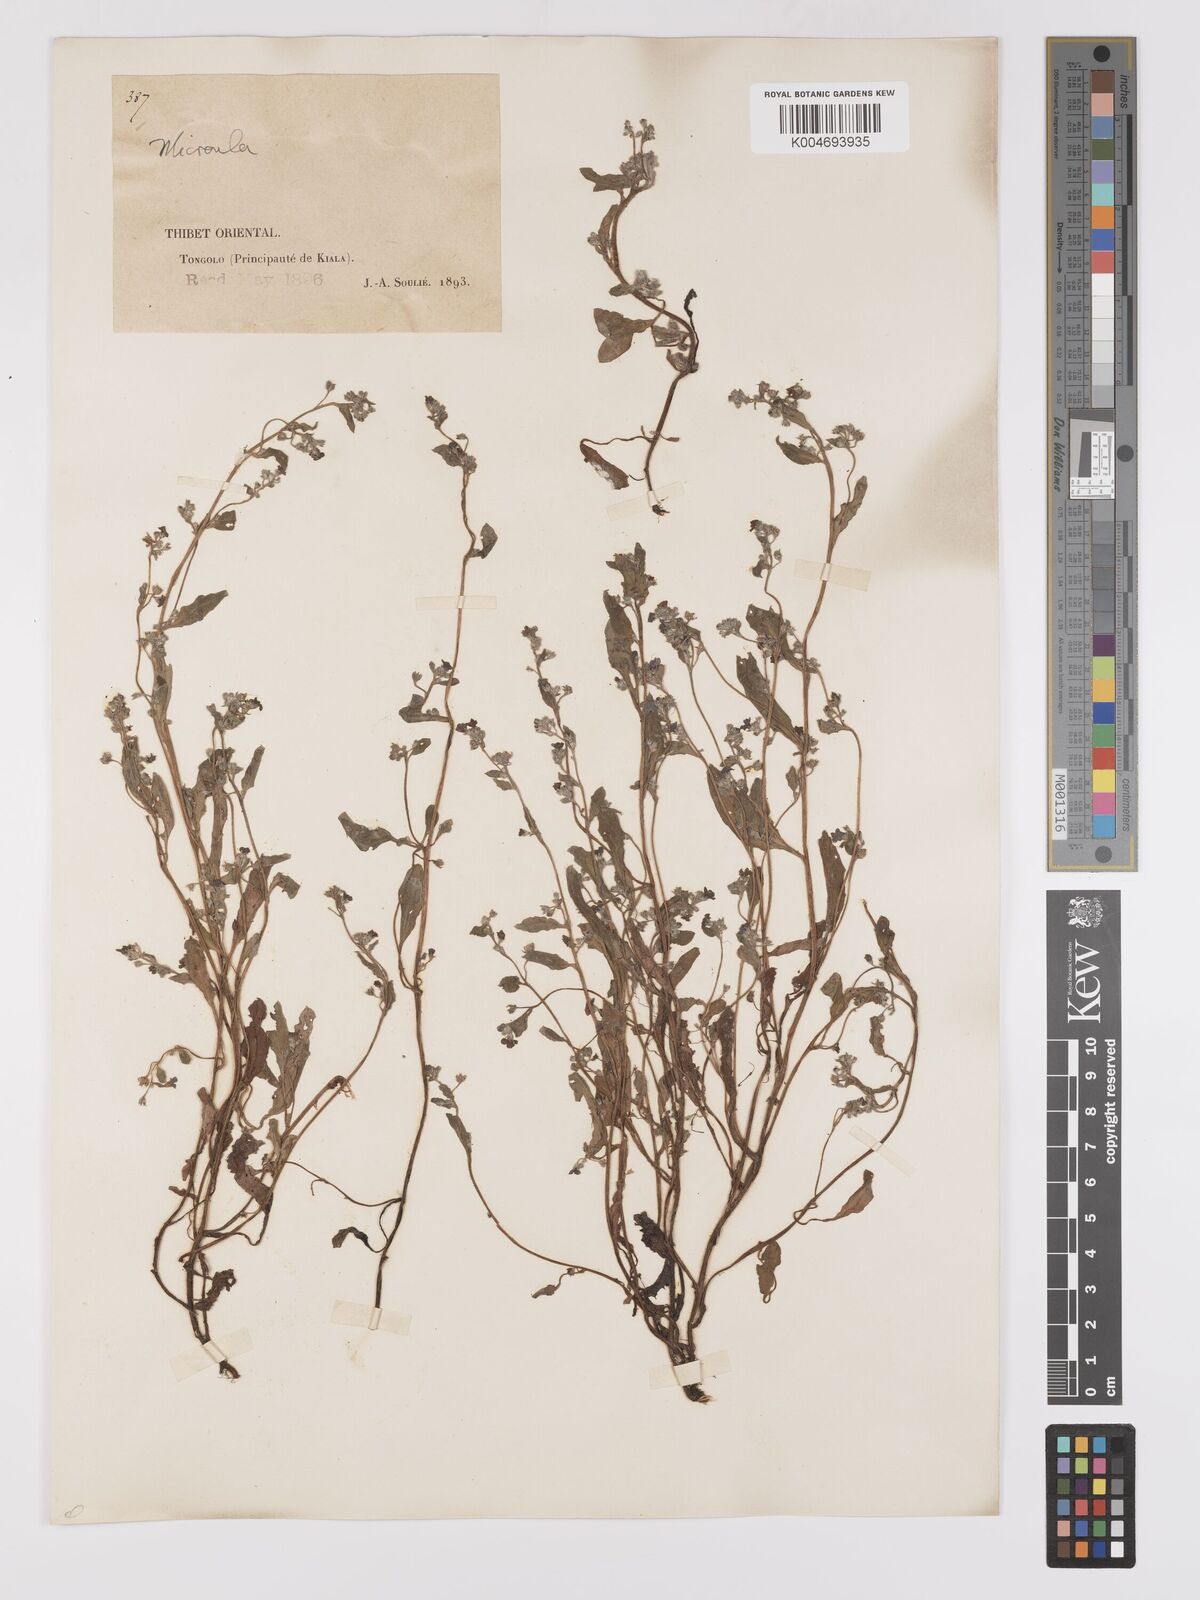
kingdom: Plantae
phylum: Tracheophyta
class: Magnoliopsida
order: Boraginales
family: Boraginaceae
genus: Microula
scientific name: Microula
